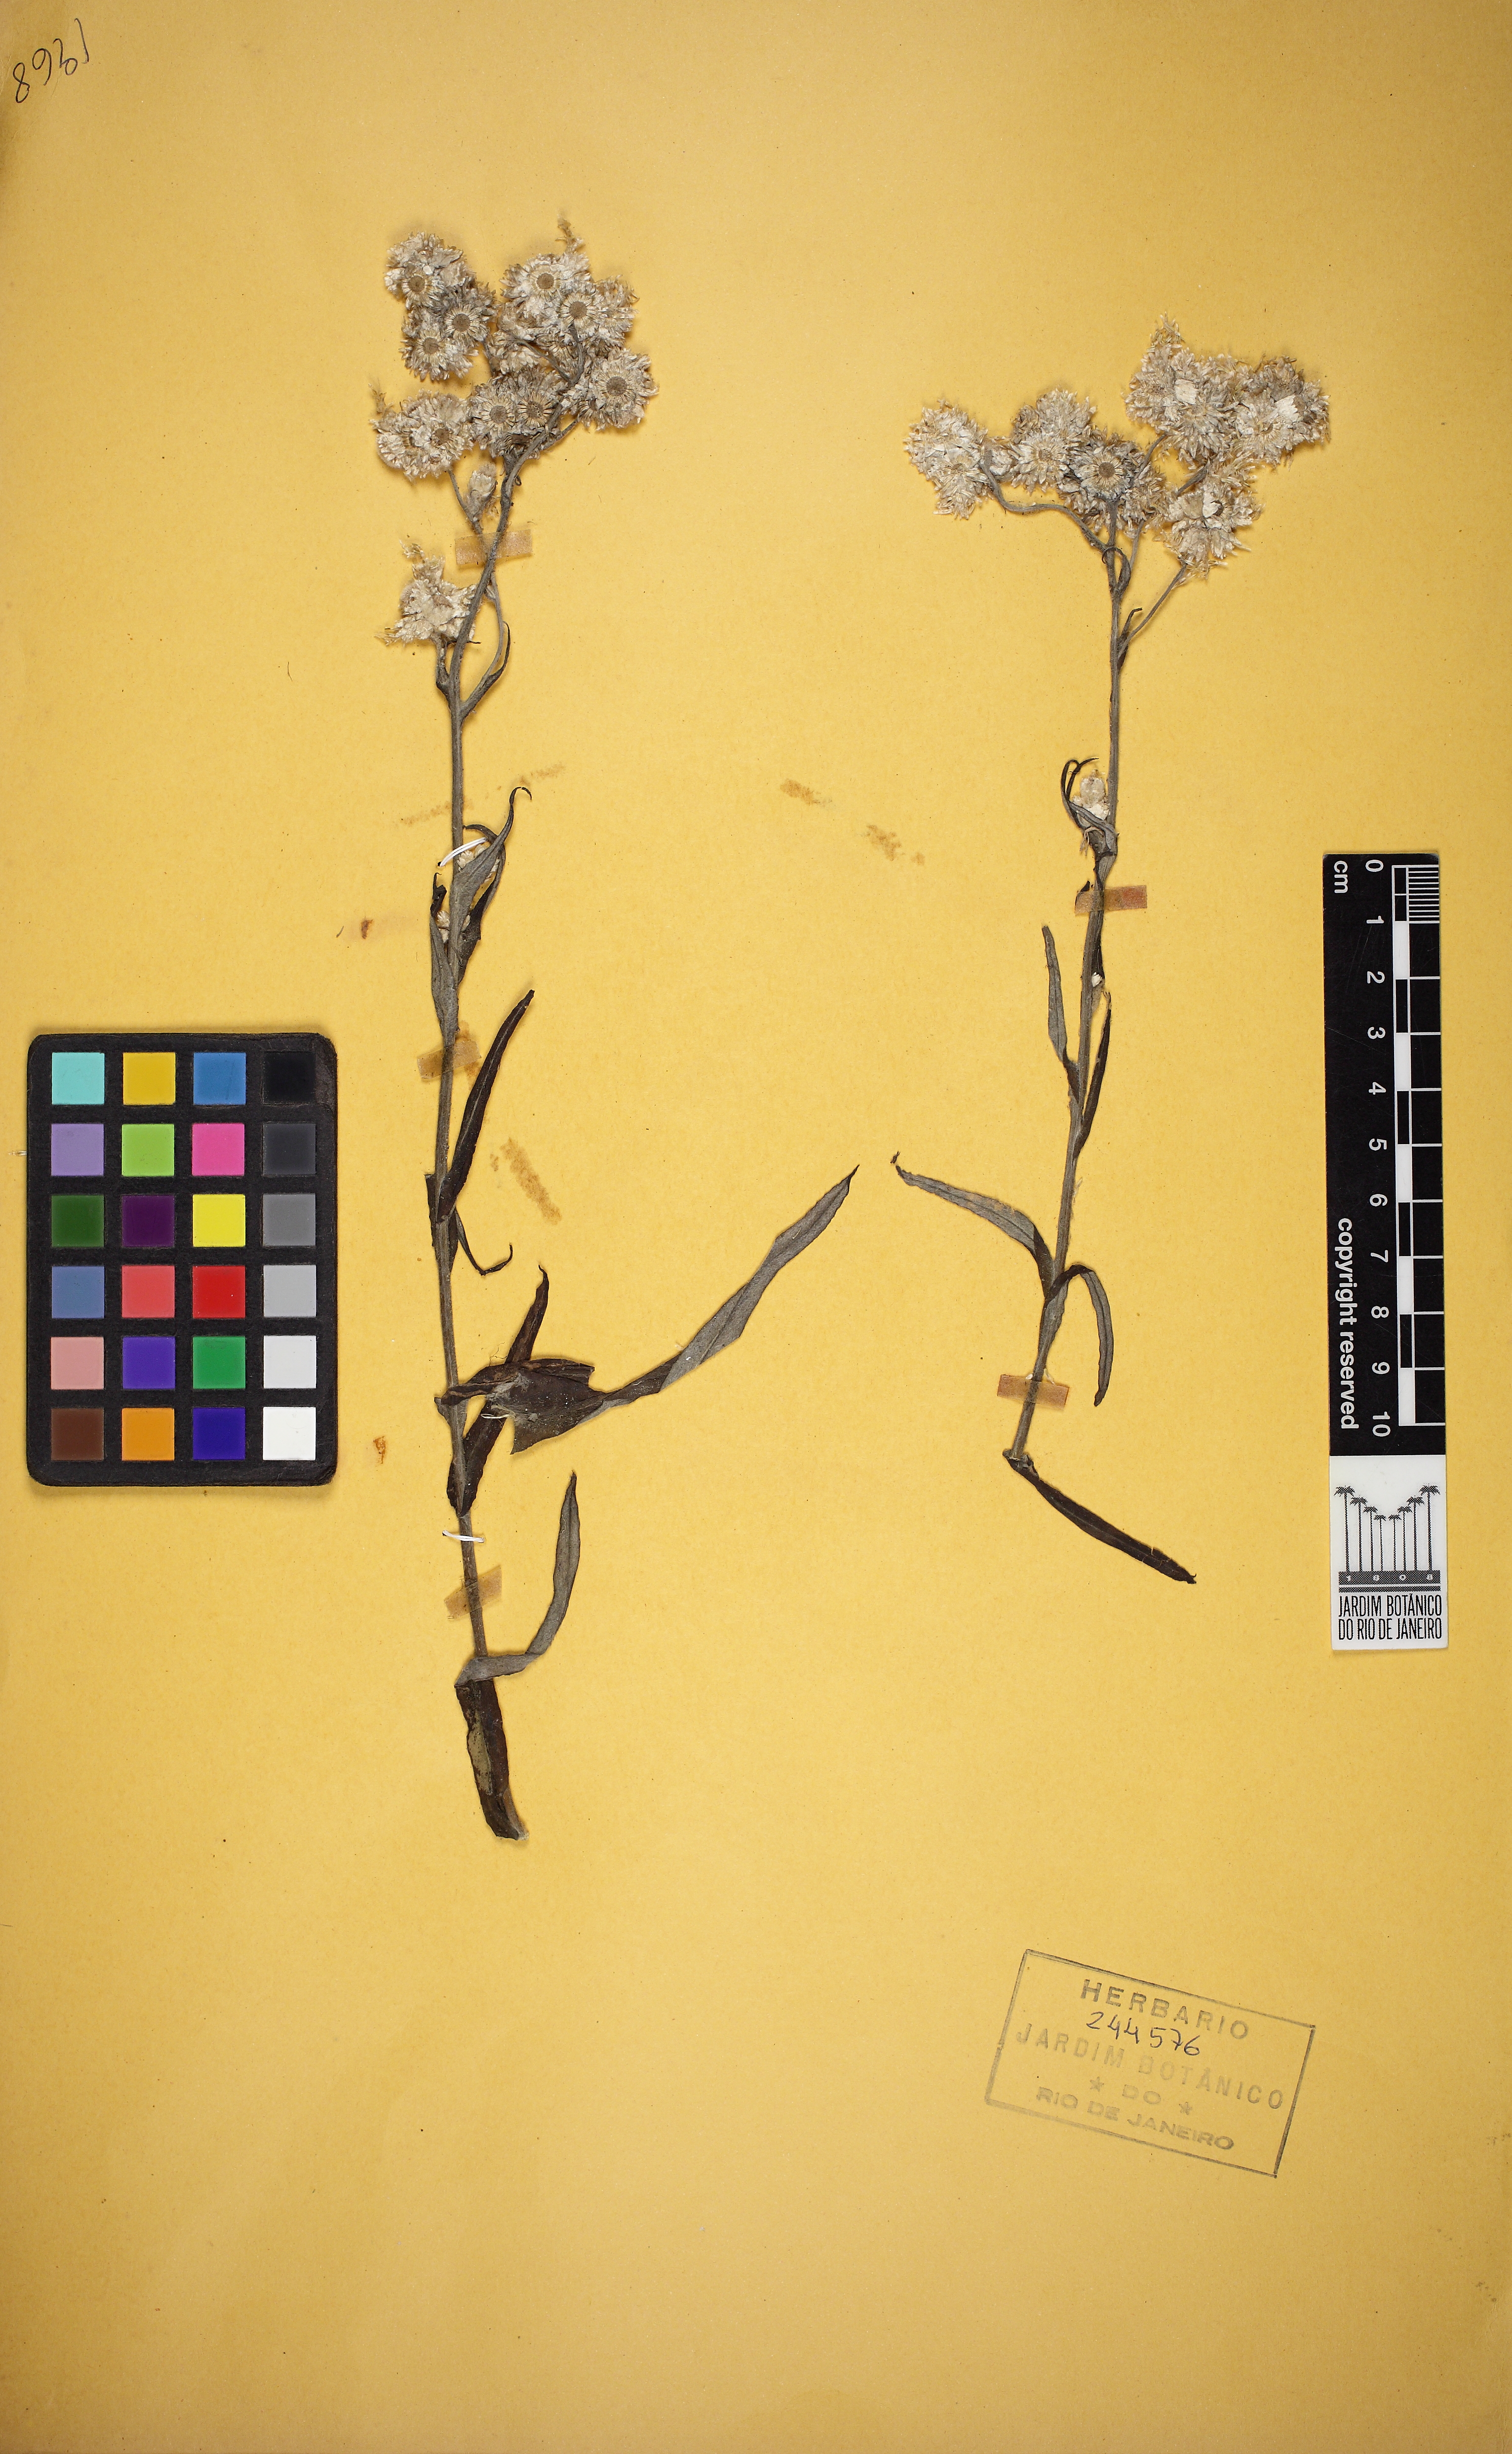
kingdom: Plantae
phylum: Tracheophyta
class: Magnoliopsida
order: Asterales
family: Asteraceae
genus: Pseudognaphalium
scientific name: Pseudognaphalium gaudichaudianum
